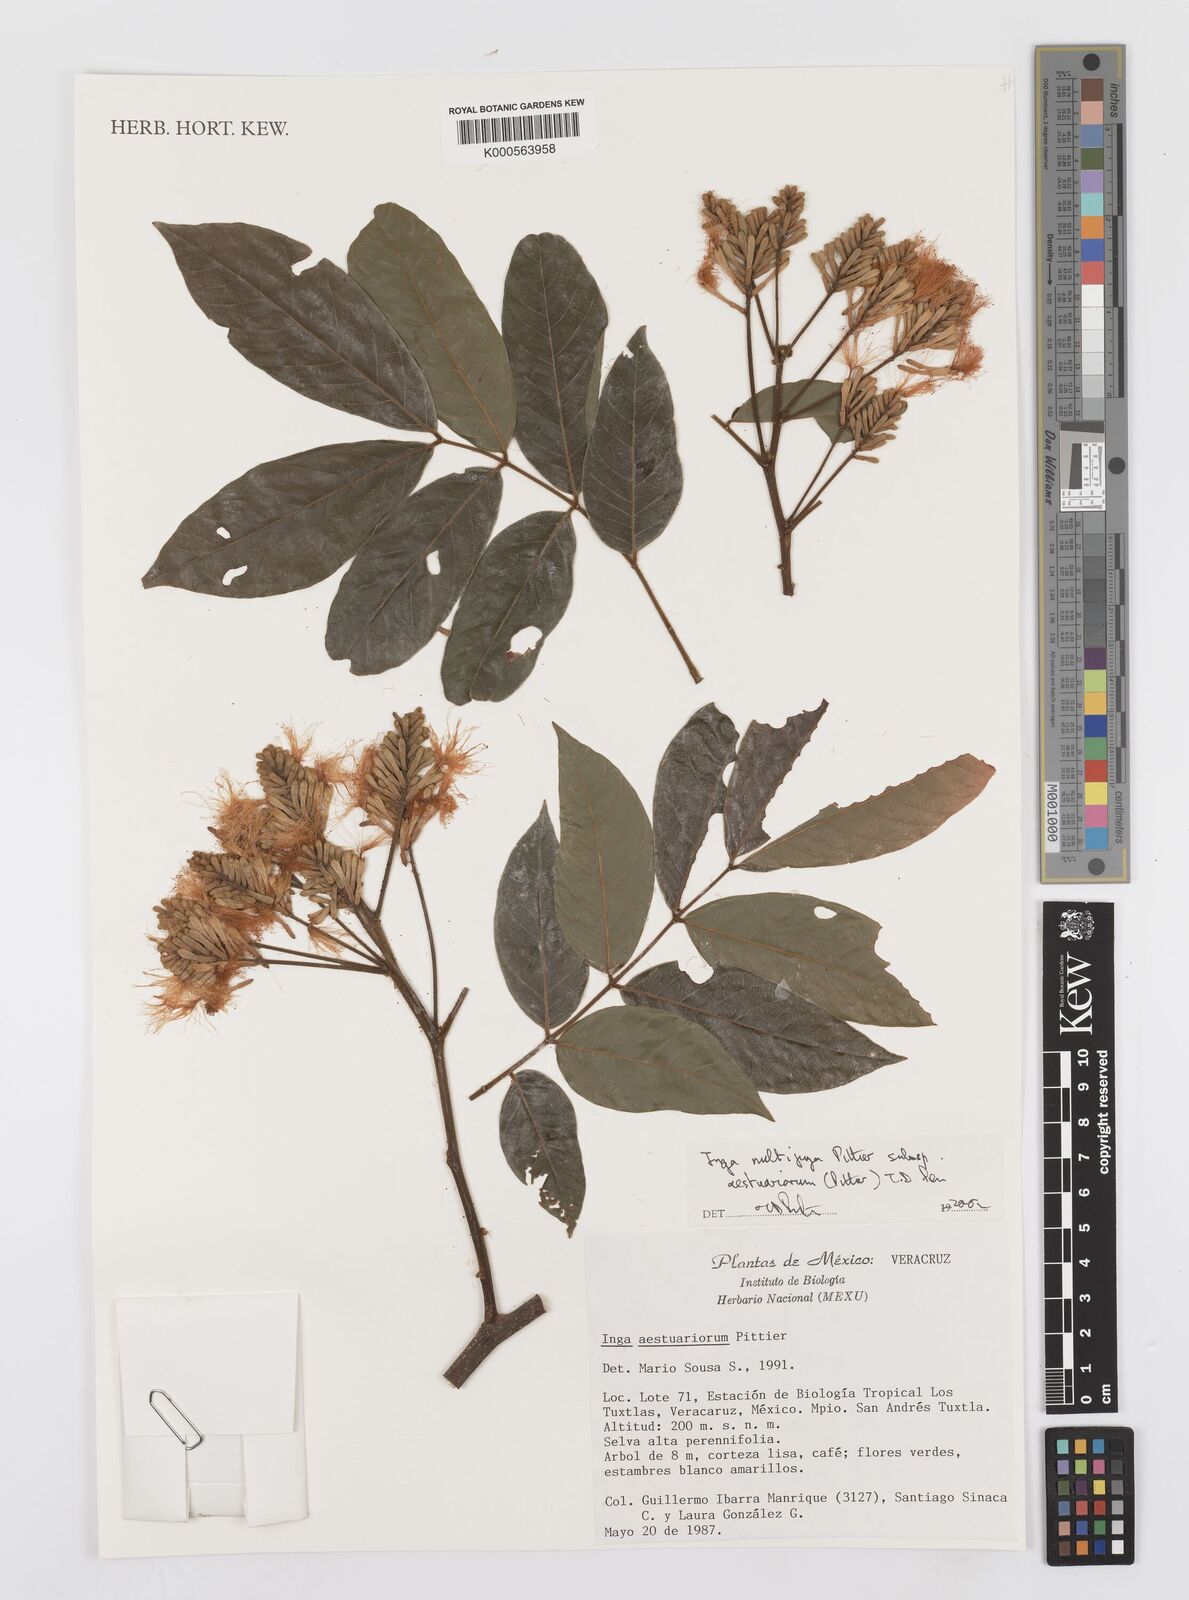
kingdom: Plantae
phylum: Tracheophyta
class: Magnoliopsida
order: Fabales
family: Fabaceae
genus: Inga
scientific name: Inga multijuga
